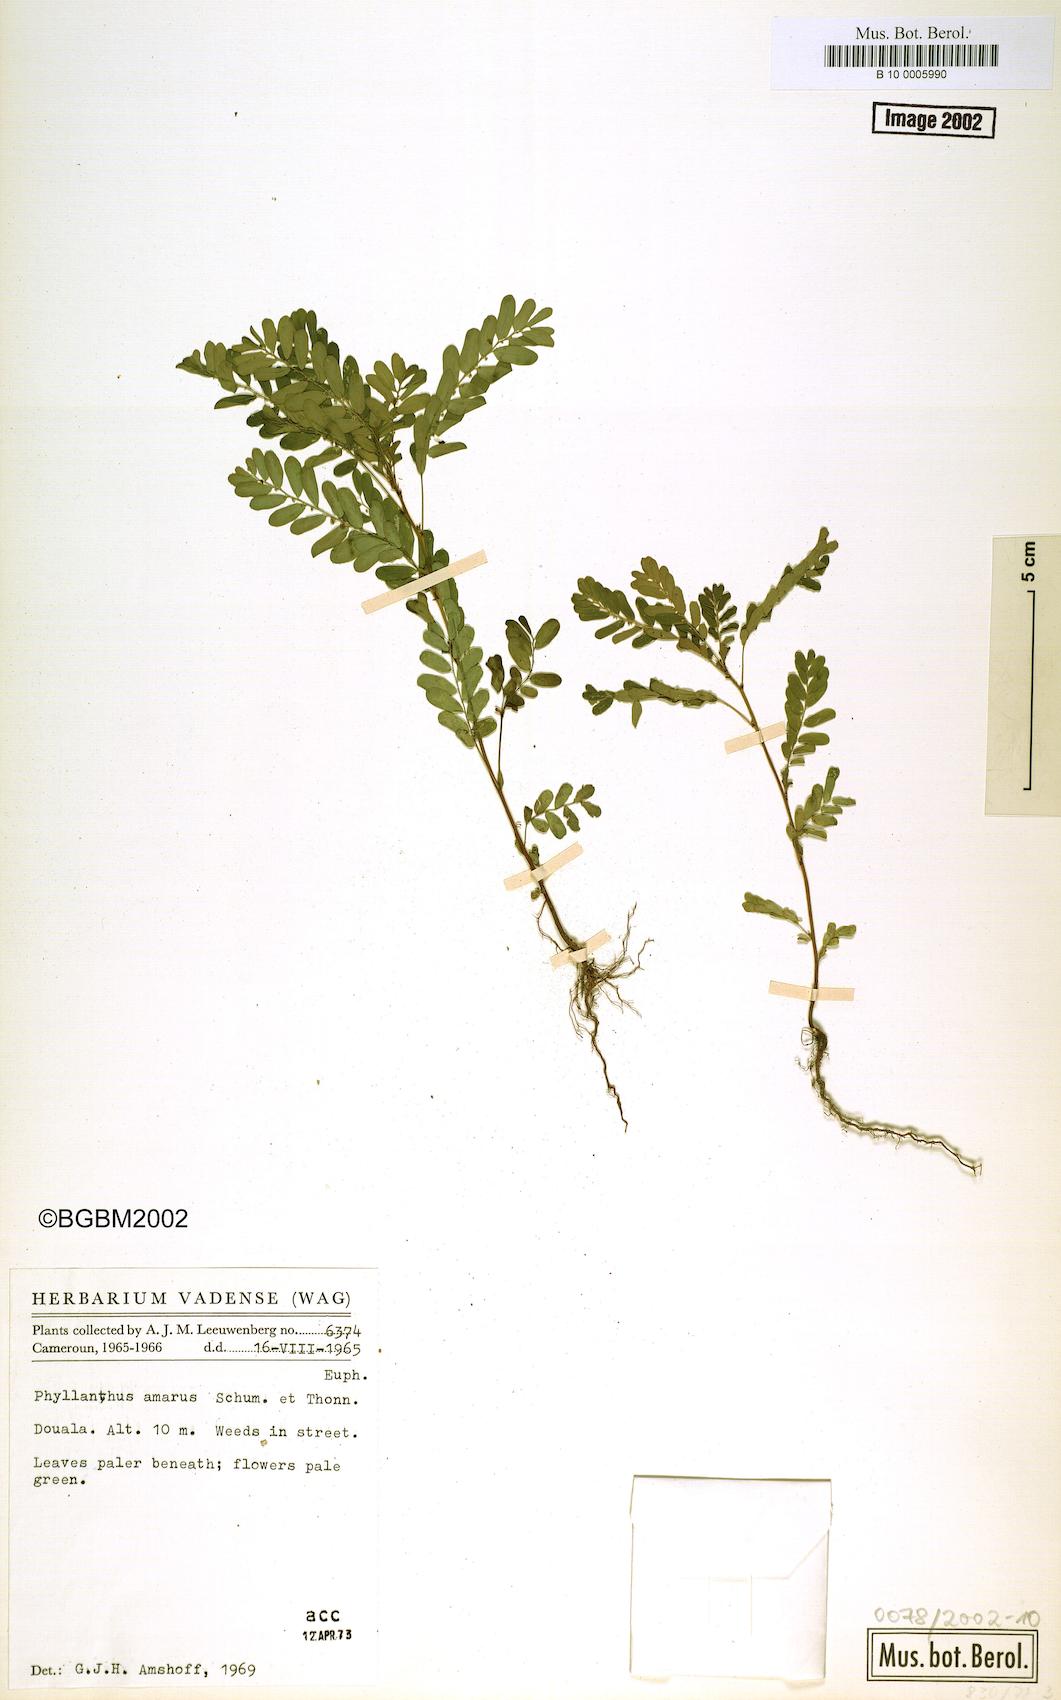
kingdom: Plantae
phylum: Tracheophyta
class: Magnoliopsida
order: Malpighiales
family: Phyllanthaceae
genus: Phyllanthus
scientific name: Phyllanthus amarus
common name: Carry me seed
